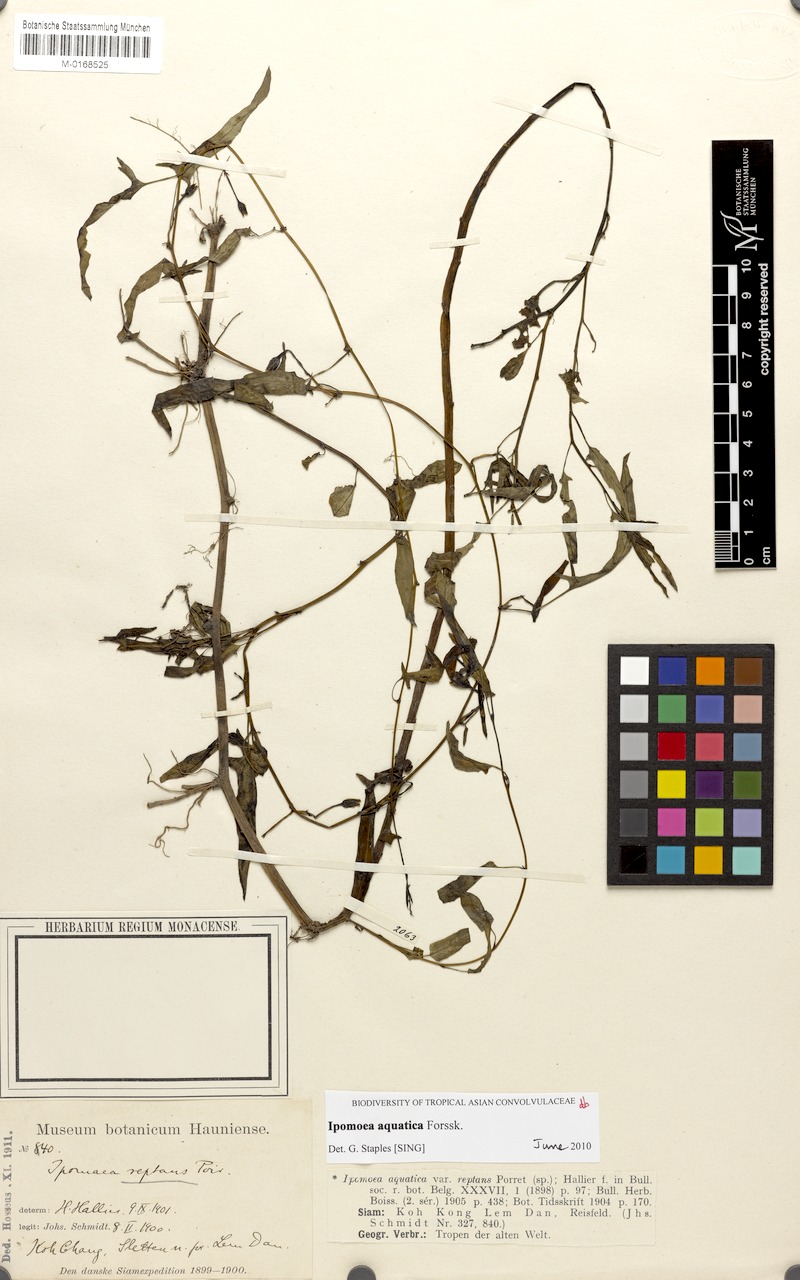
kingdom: Plantae
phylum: Tracheophyta
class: Magnoliopsida
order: Solanales
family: Convolvulaceae
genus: Ipomoea
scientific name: Ipomoea aquatica
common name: Swamp morning-glory
